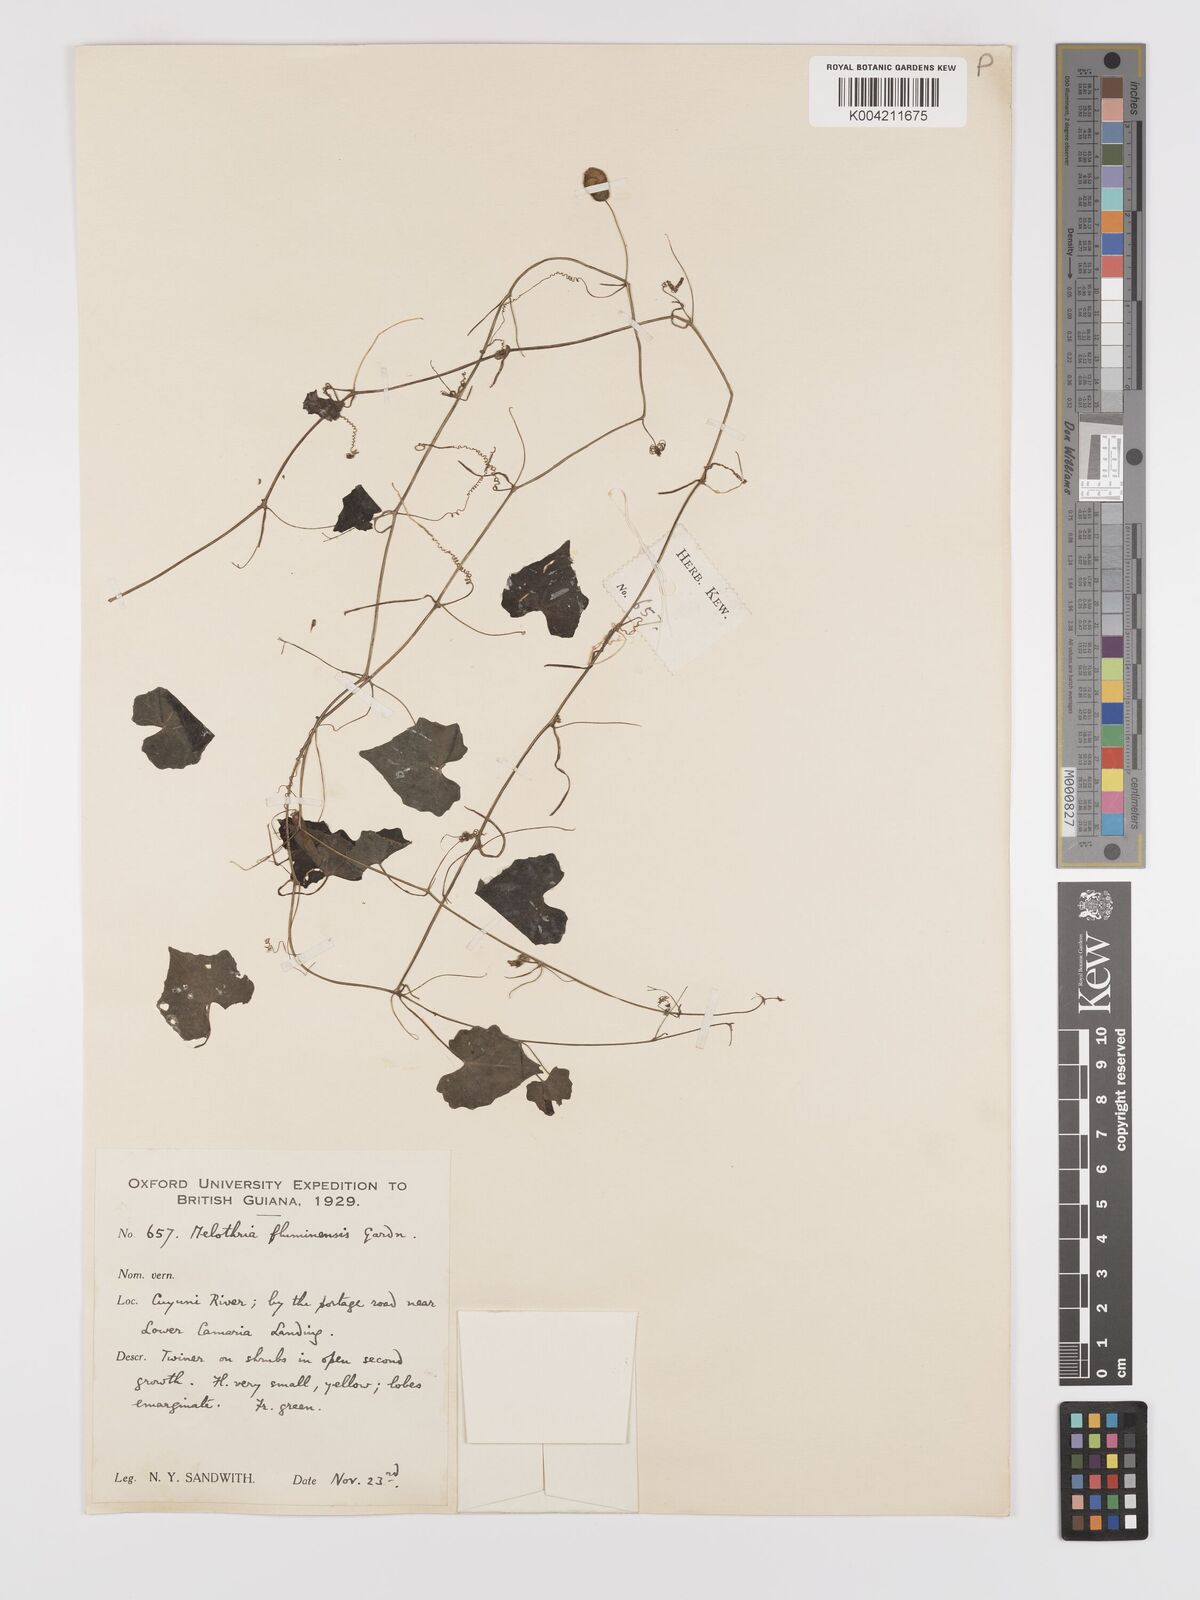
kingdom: Plantae
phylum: Tracheophyta
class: Magnoliopsida
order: Cucurbitales
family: Cucurbitaceae
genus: Melothria
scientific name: Melothria pendula
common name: Creeping-cucumber
